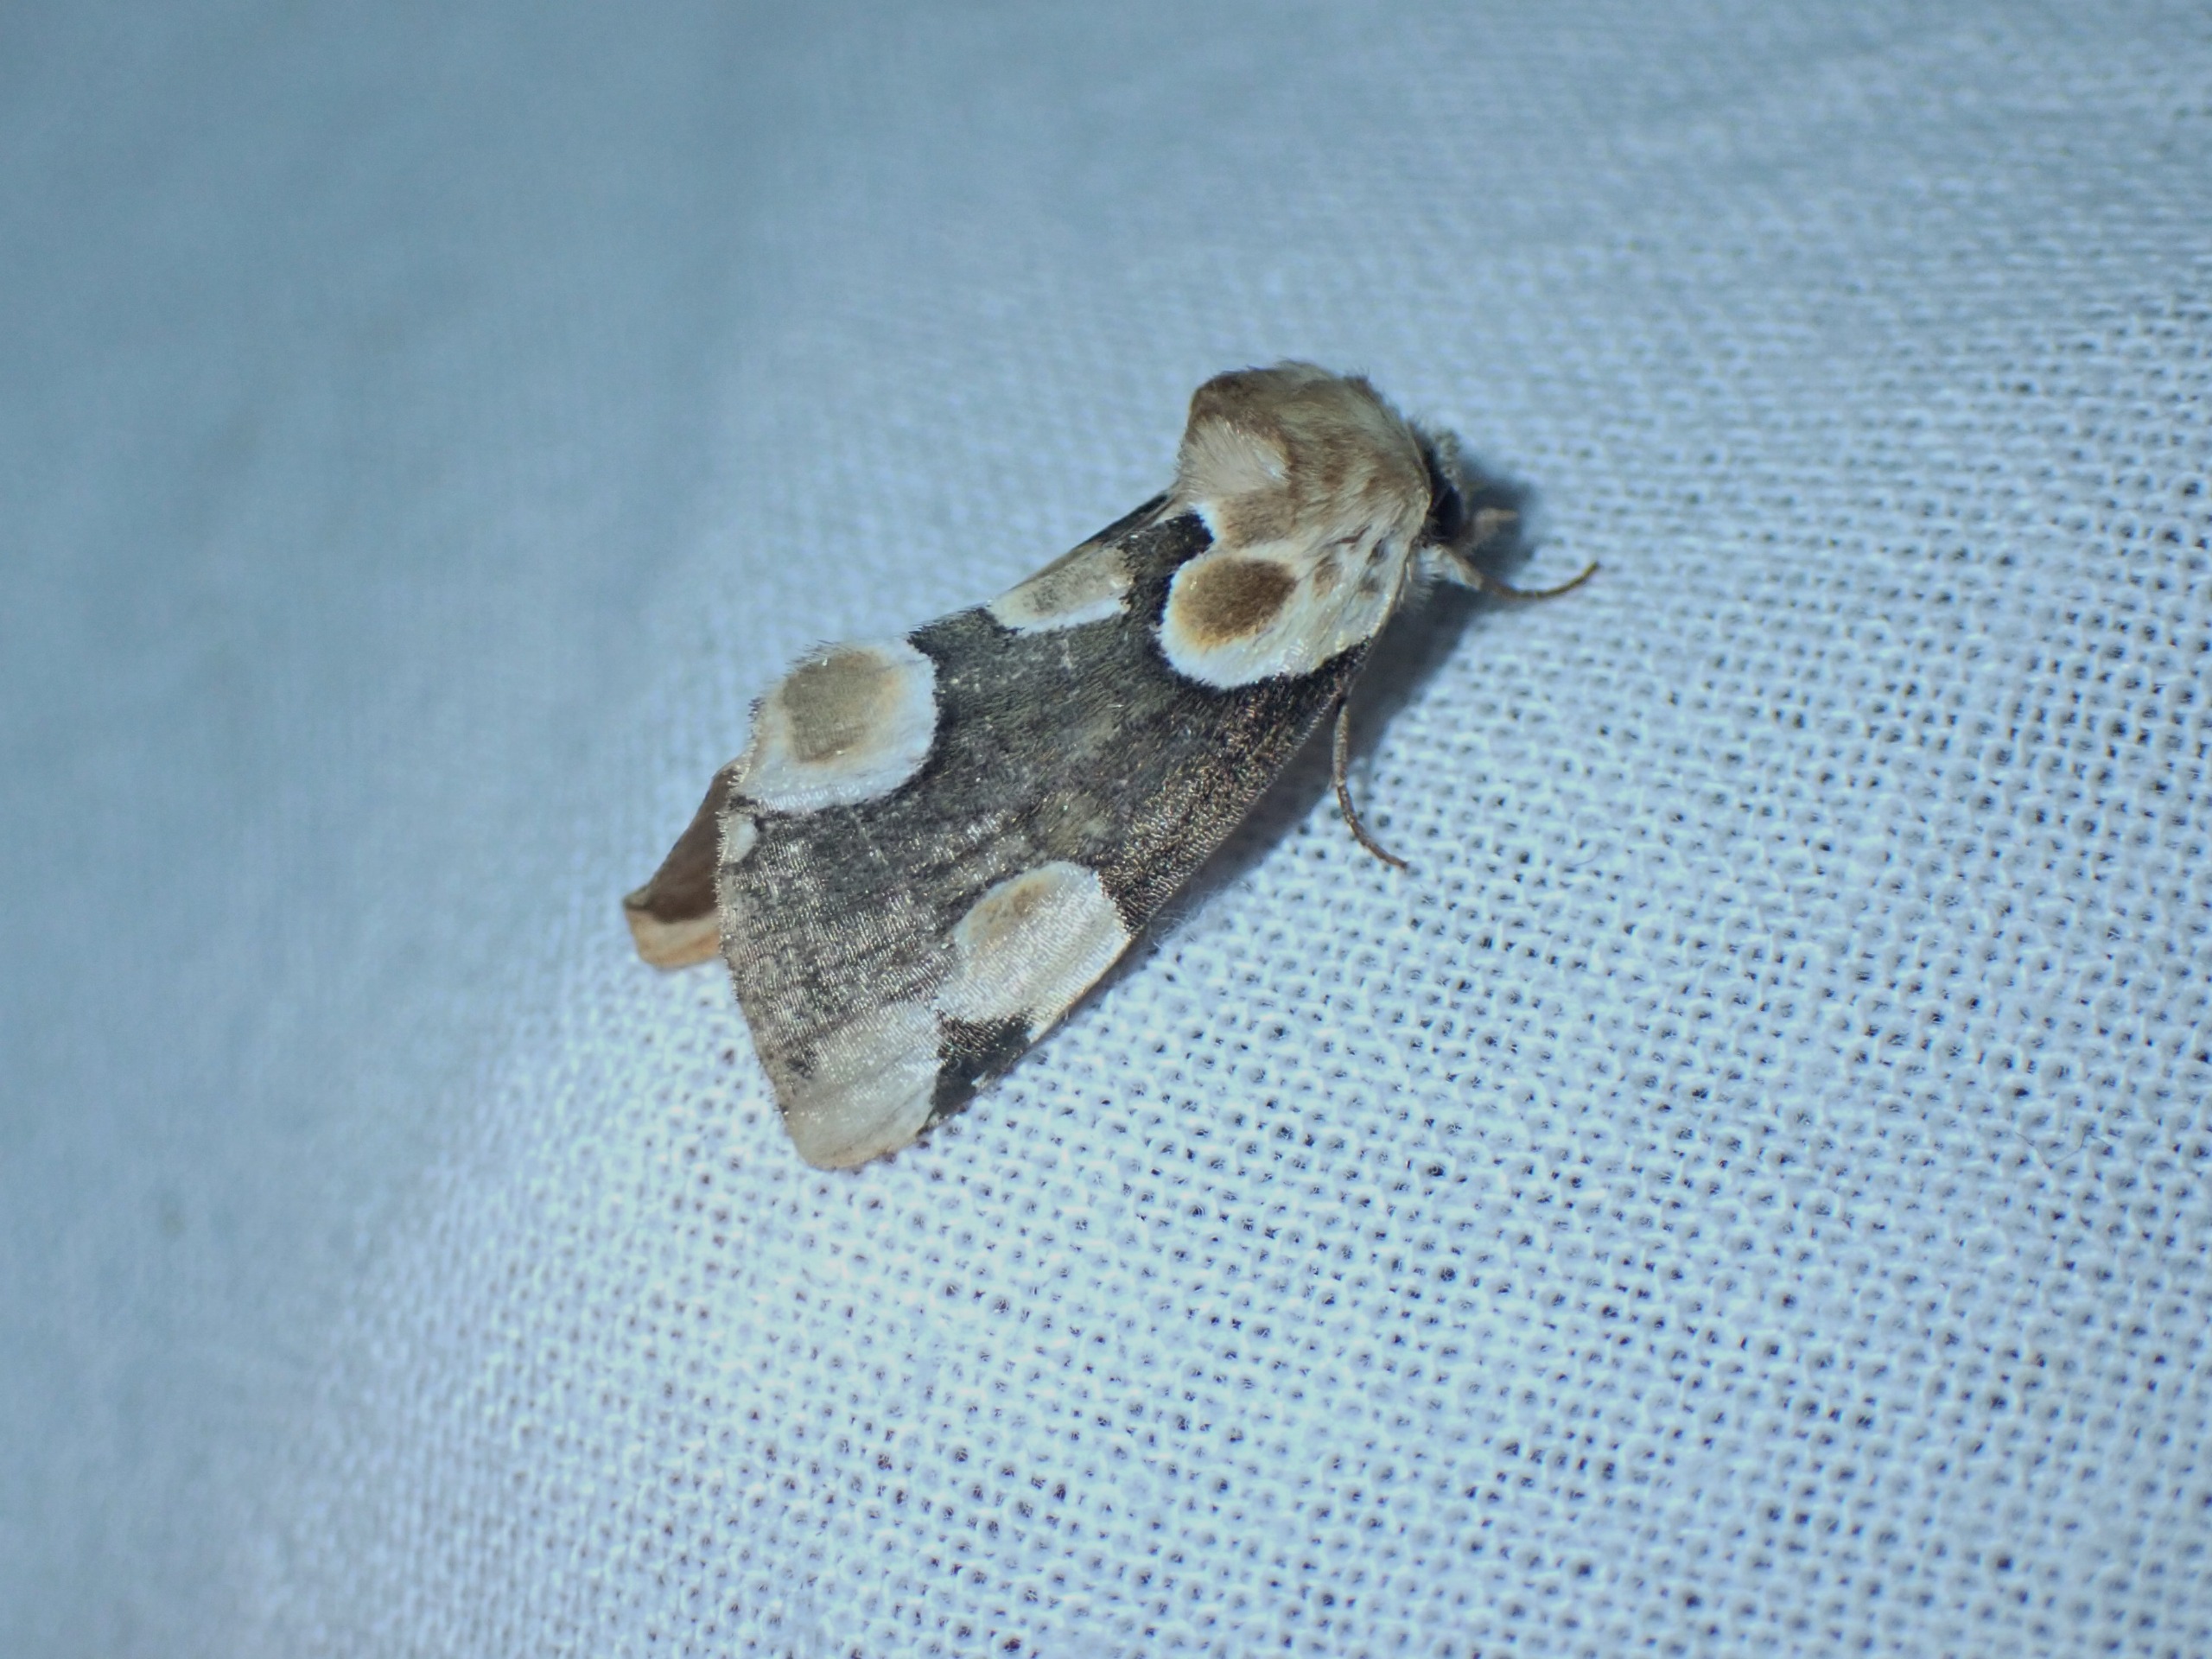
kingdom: Animalia
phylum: Arthropoda
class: Insecta
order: Lepidoptera
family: Drepanidae
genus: Thyatira
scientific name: Thyatira batis
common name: Rosenplet
